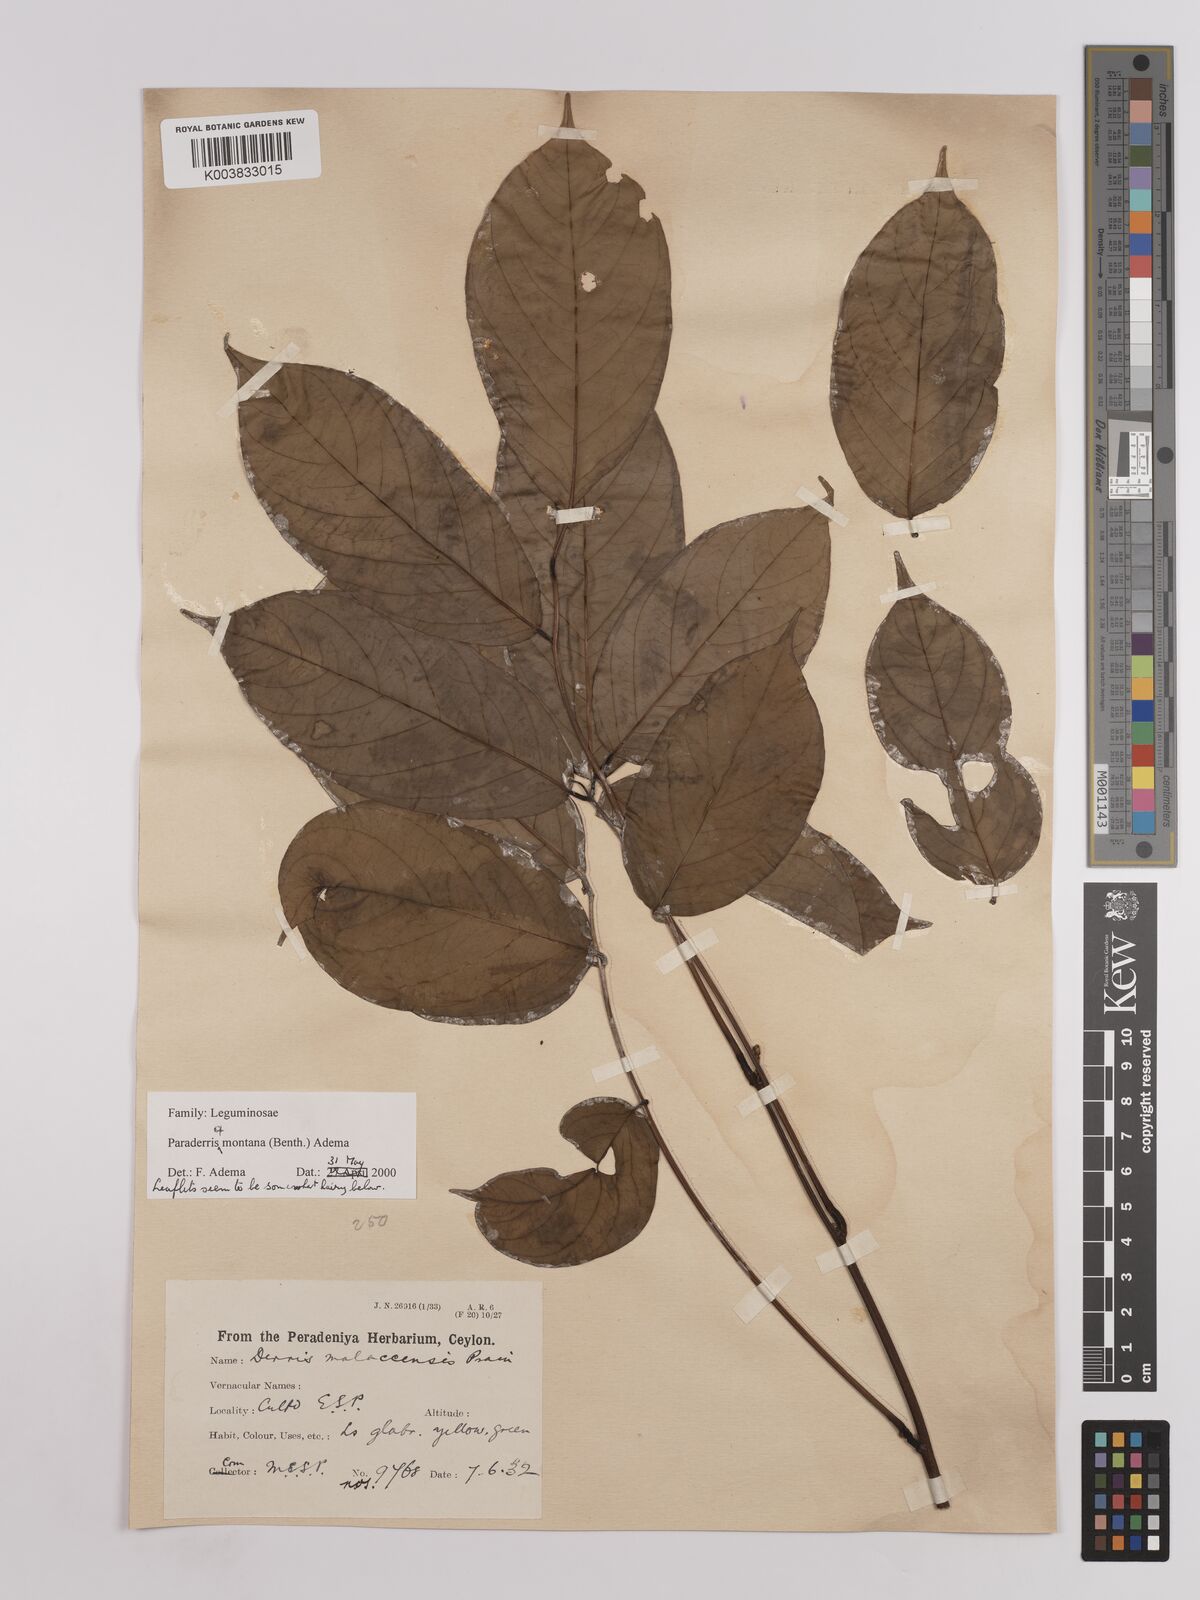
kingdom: Plantae
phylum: Tracheophyta
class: Magnoliopsida
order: Fabales
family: Fabaceae
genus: Derris
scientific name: Derris elliptica
